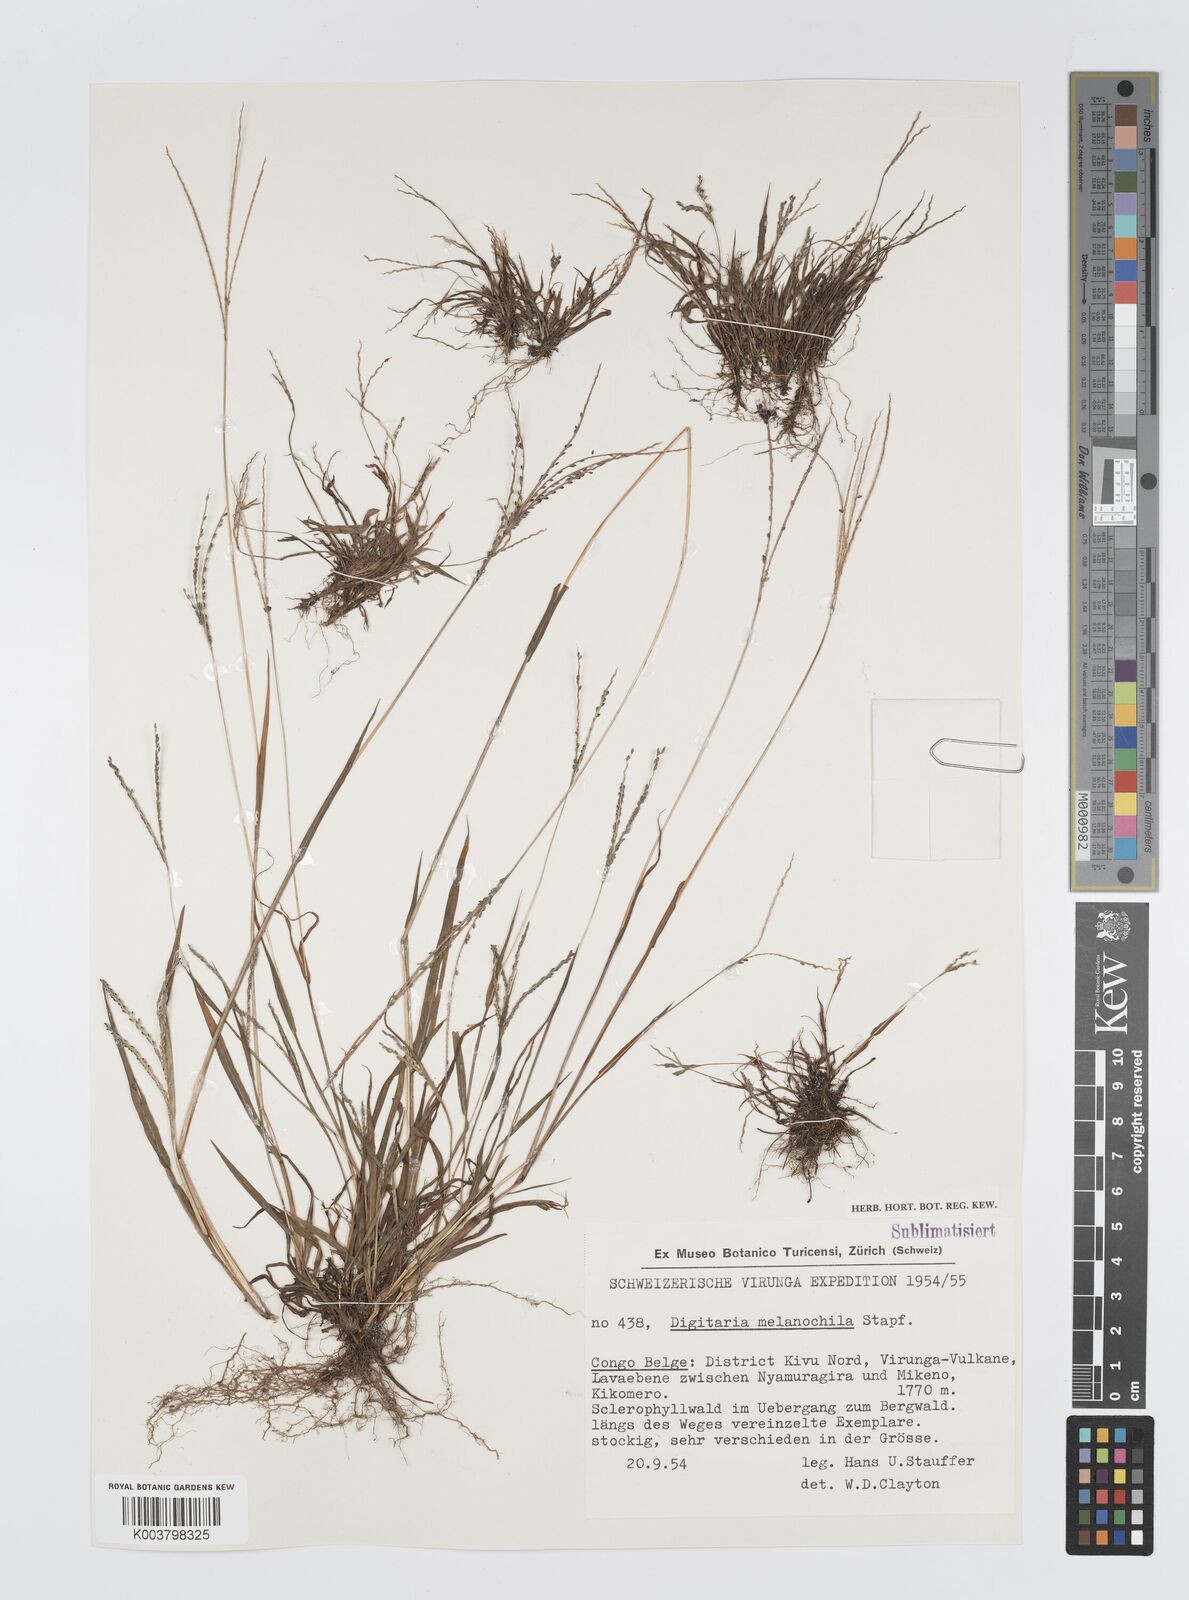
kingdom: Plantae
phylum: Tracheophyta
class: Liliopsida
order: Poales
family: Poaceae
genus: Digitaria
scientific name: Digitaria thouarsiana
